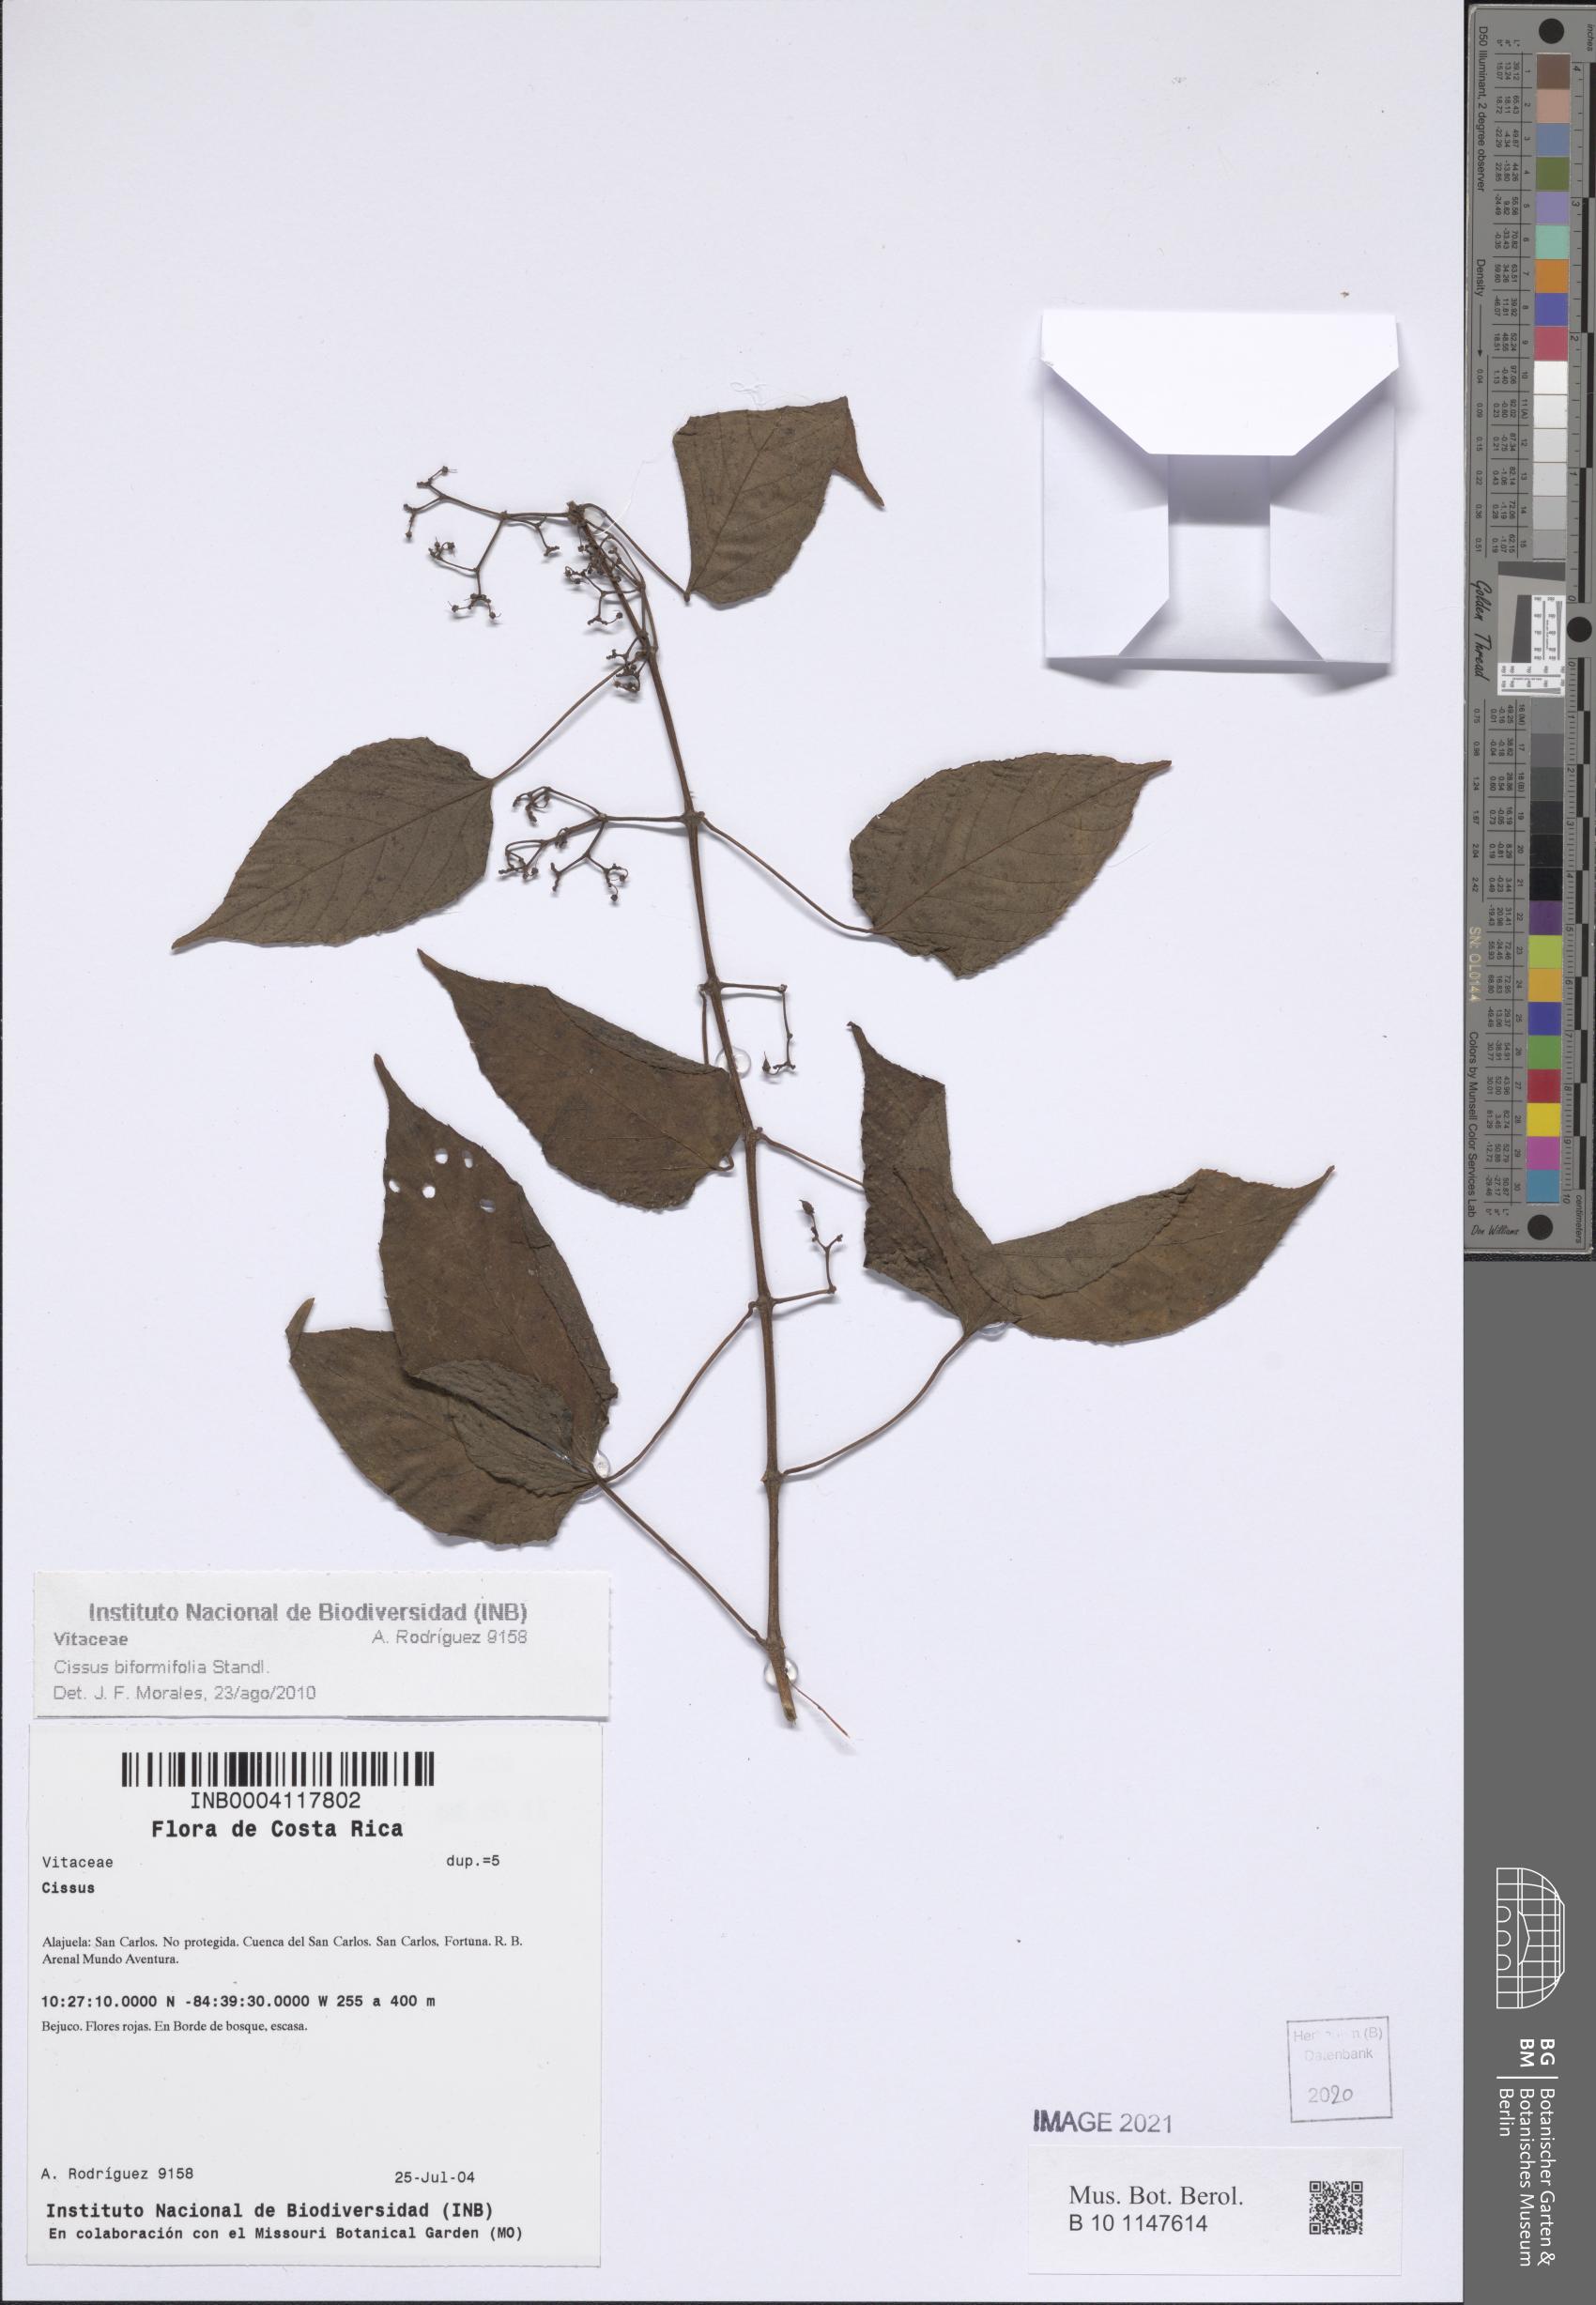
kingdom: Plantae
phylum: Tracheophyta
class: Magnoliopsida
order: Vitales
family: Vitaceae
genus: Cissus
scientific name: Cissus biformifolia
